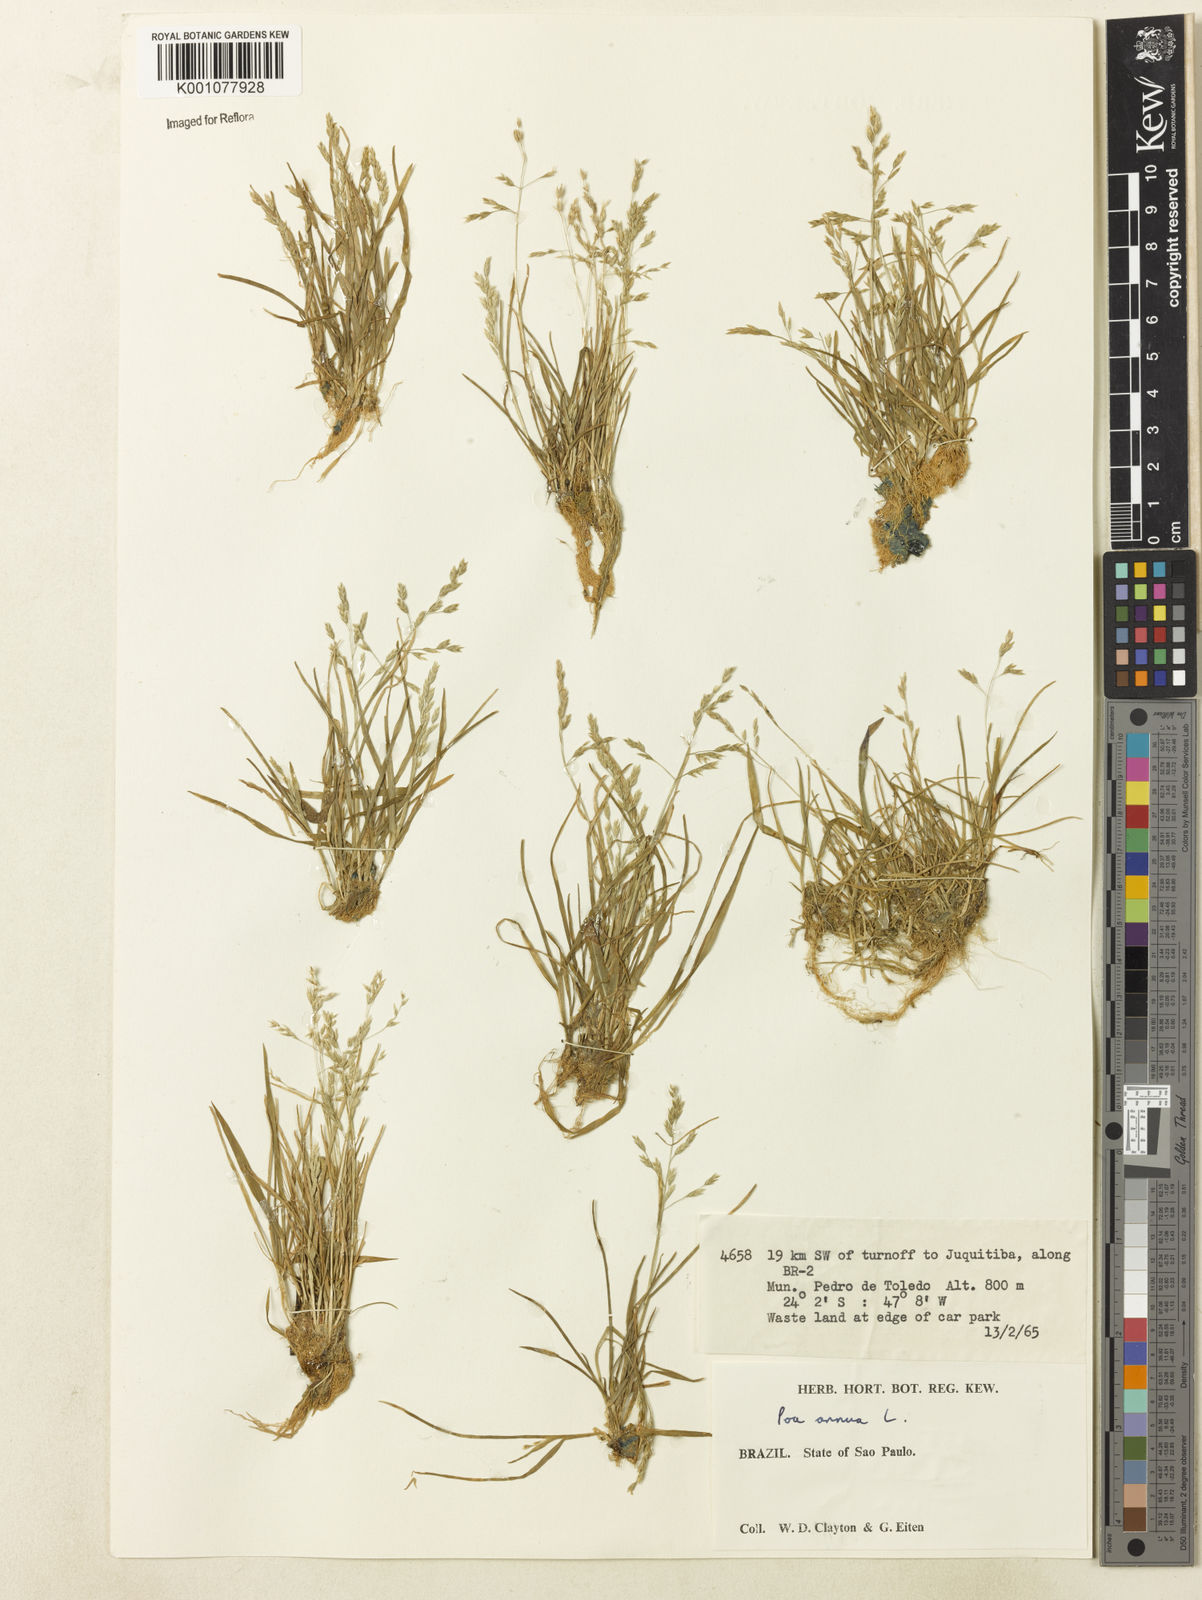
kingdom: Plantae
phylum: Tracheophyta
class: Liliopsida
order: Poales
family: Poaceae
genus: Poa
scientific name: Poa annua
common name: Annual bluegrass
